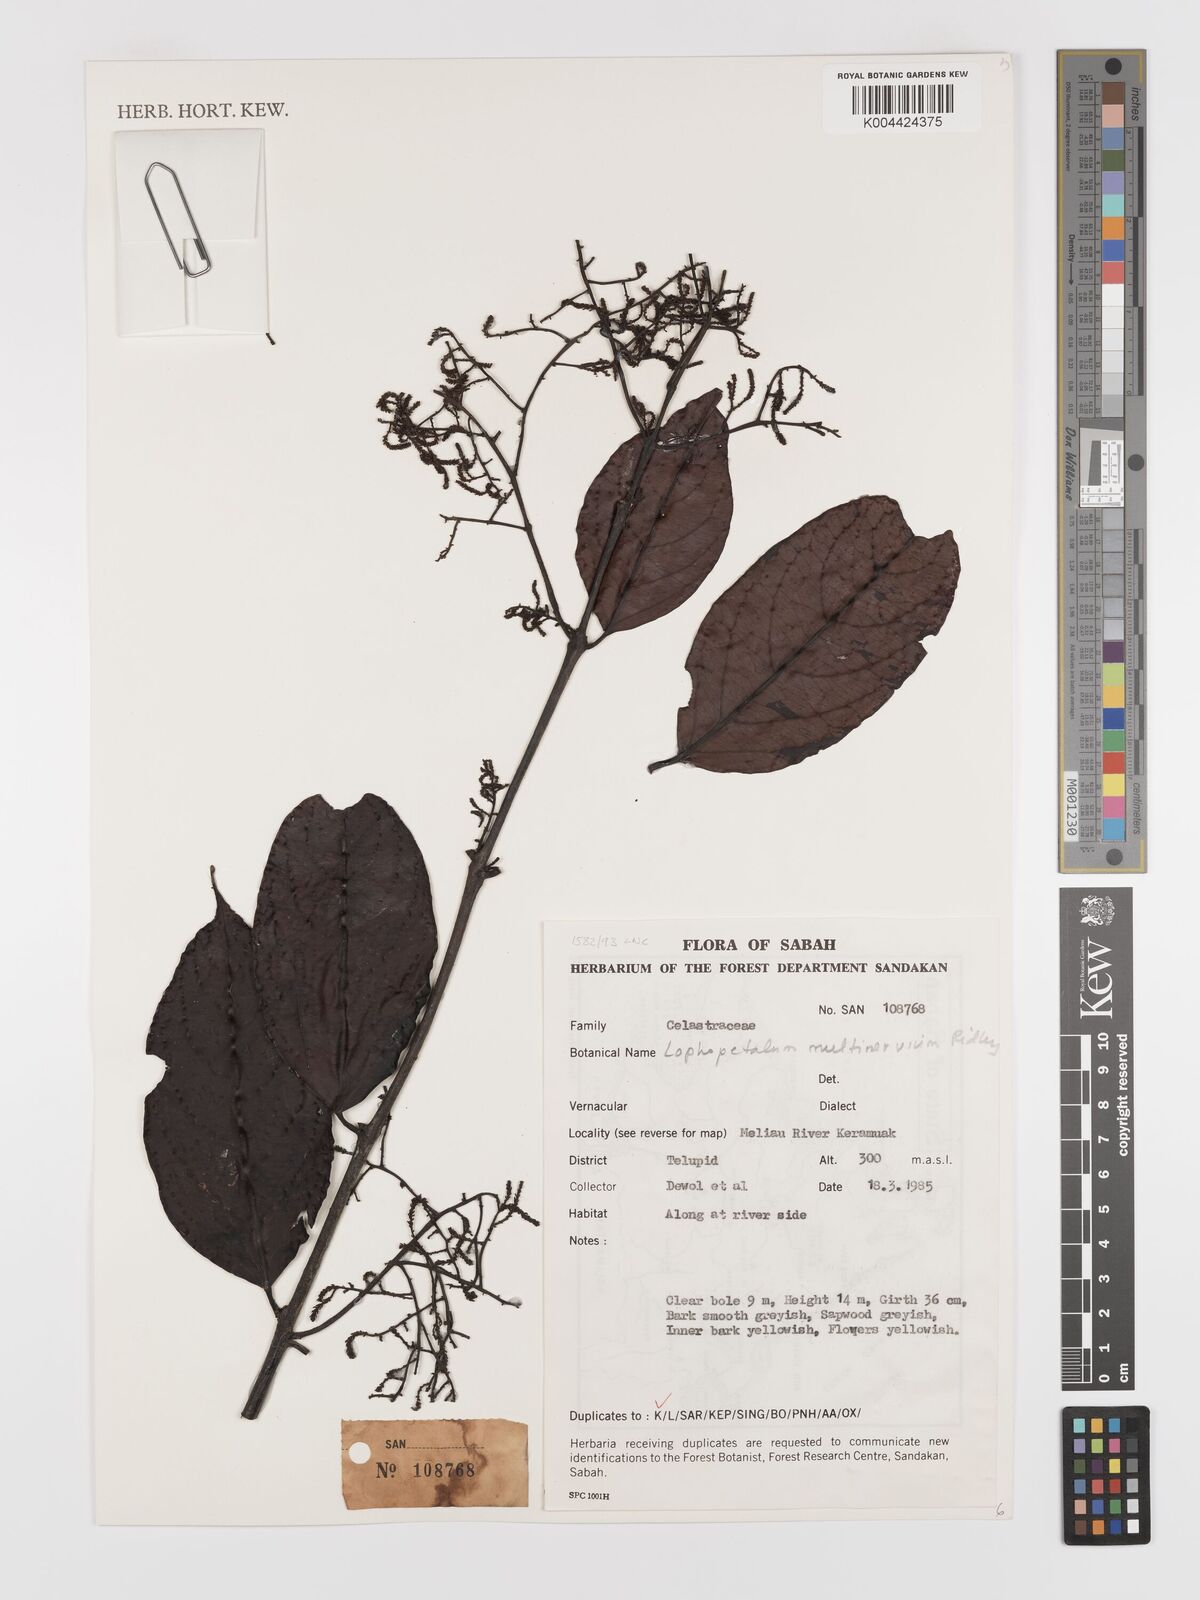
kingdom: Plantae
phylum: Tracheophyta
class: Magnoliopsida
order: Celastrales
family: Celastraceae
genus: Lophopetalum
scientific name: Lophopetalum multinervium
